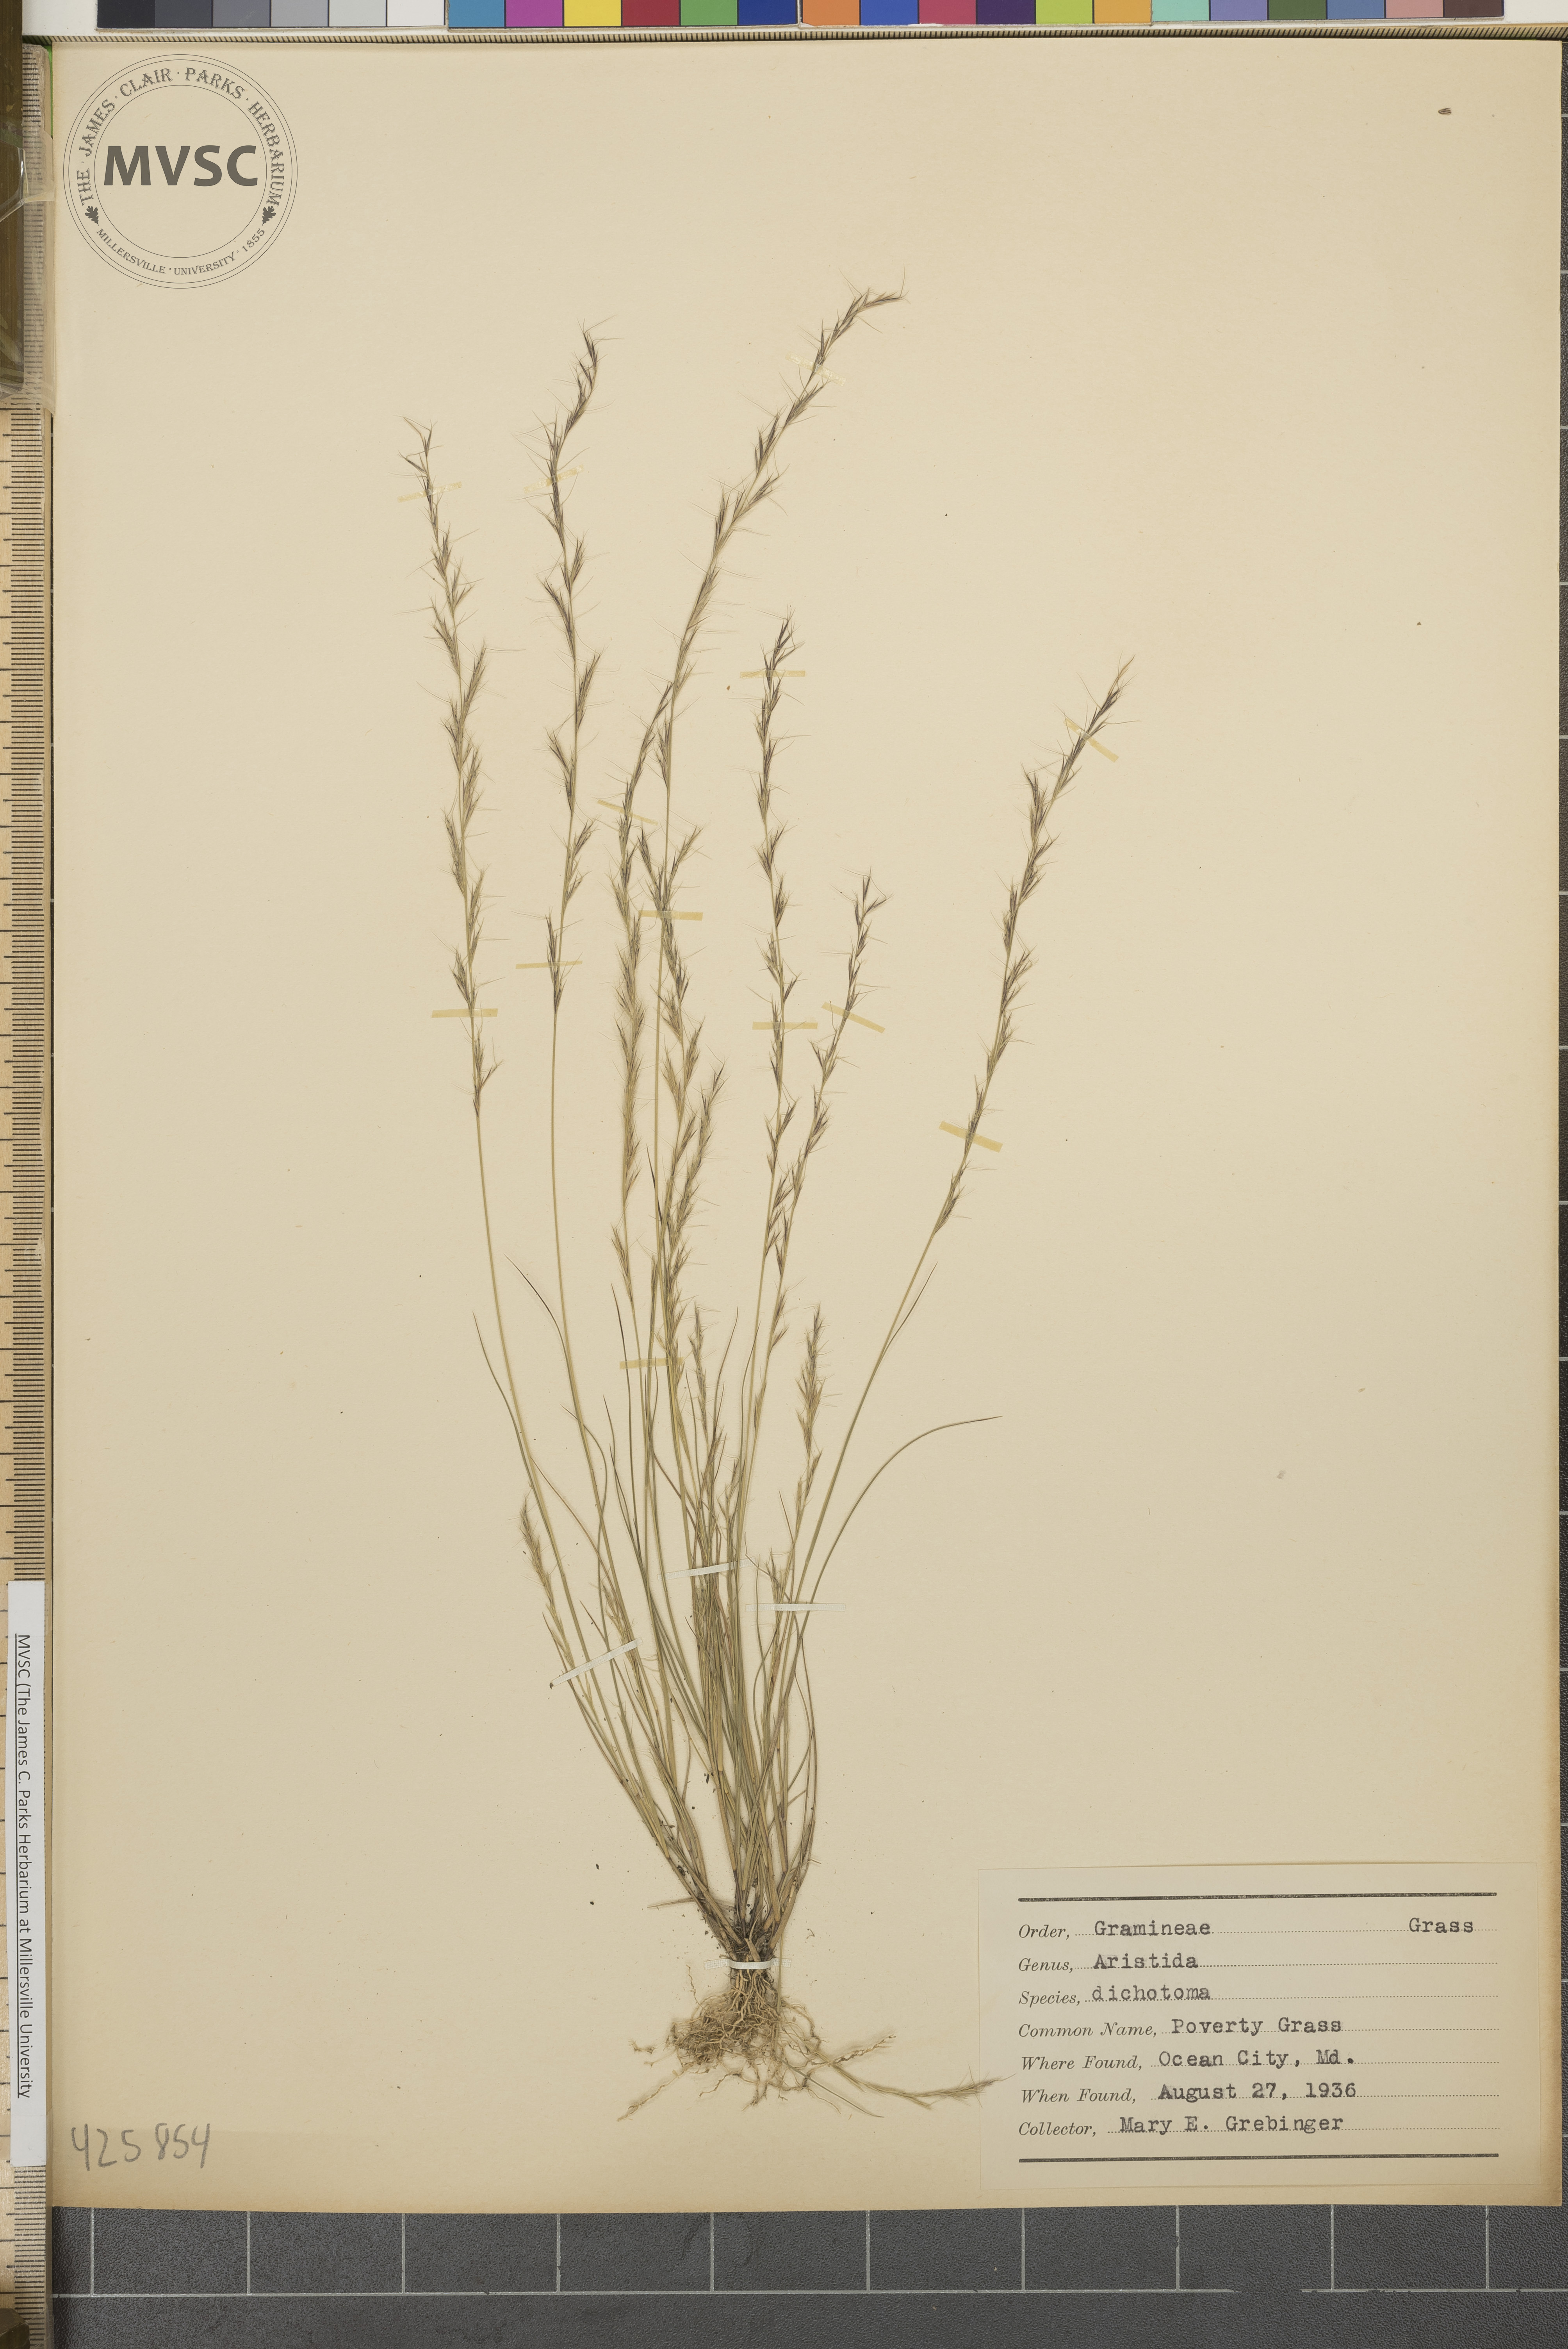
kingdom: Plantae
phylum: Tracheophyta
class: Liliopsida
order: Poales
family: Poaceae
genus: Aristida
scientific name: Aristida dichotoma
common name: Poverty Grass
